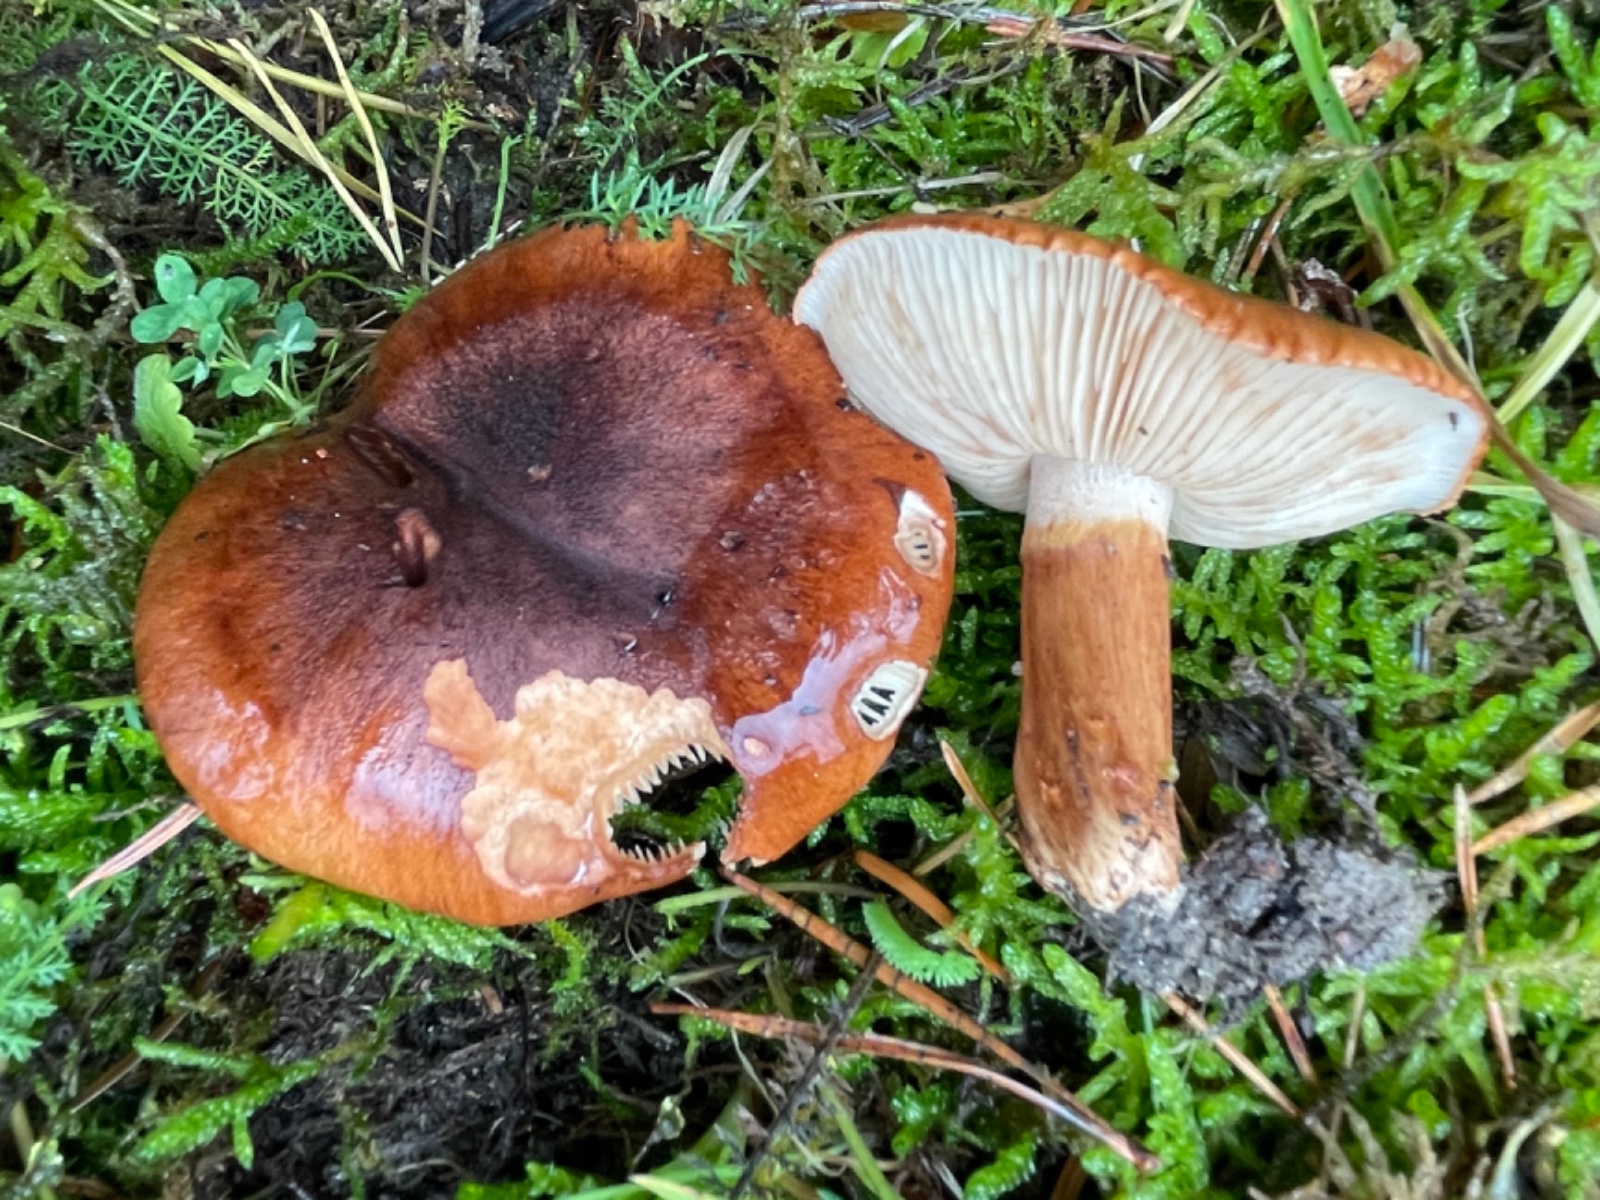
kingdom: Fungi
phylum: Basidiomycota
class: Agaricomycetes
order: Agaricales
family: Tricholomataceae
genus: Tricholoma
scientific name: Tricholoma fracticum
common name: hvidhalset ridderhat
